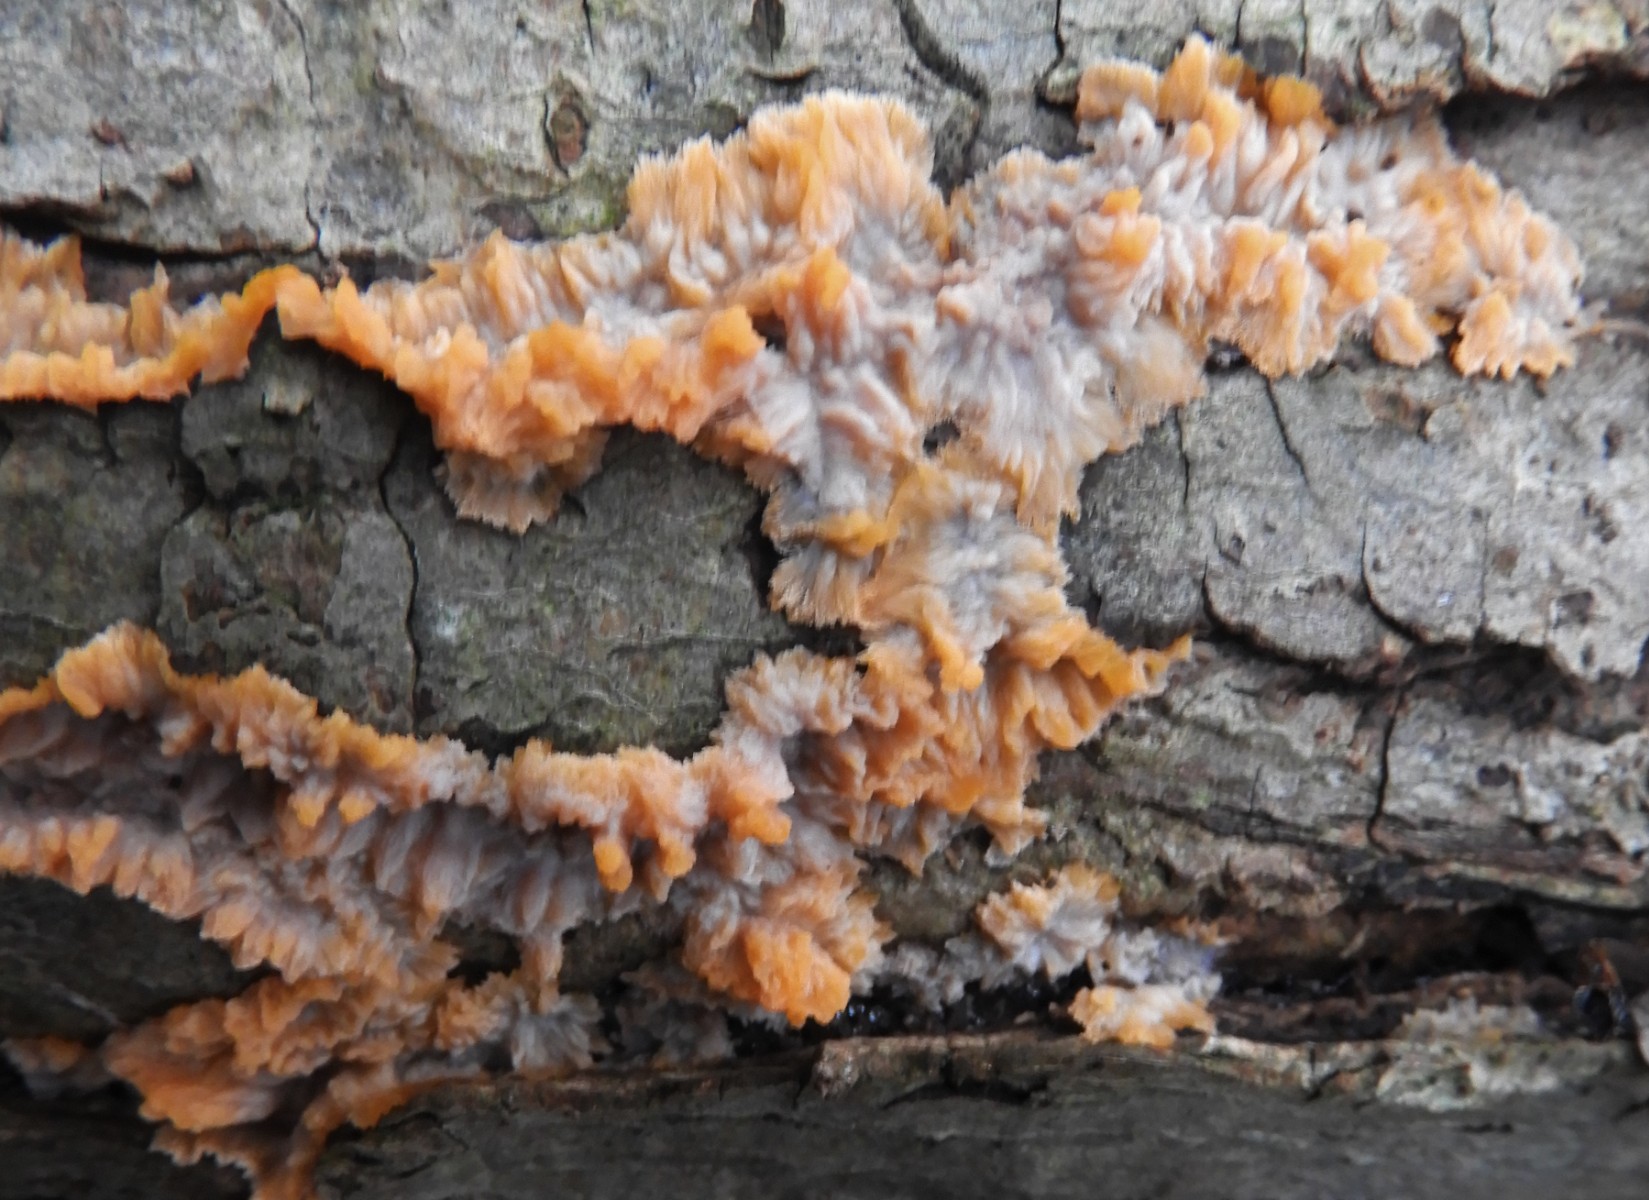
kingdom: Fungi
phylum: Basidiomycota
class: Agaricomycetes
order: Polyporales
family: Meruliaceae
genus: Phlebia
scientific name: Phlebia radiata
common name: stråle-åresvamp
